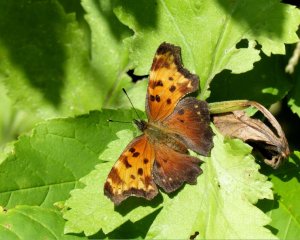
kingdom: Animalia
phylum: Arthropoda
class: Insecta
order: Lepidoptera
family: Nymphalidae
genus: Polygonia
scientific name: Polygonia progne
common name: Gray Comma
